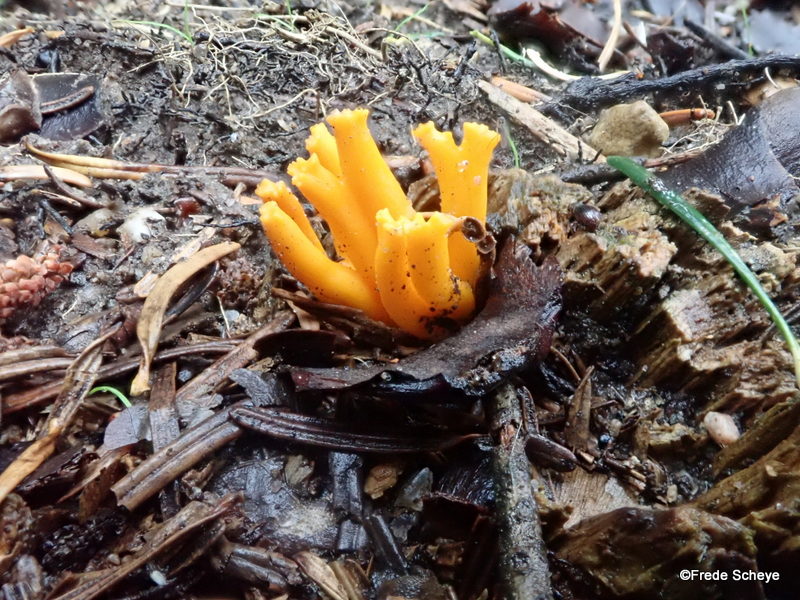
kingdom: Fungi
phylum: Basidiomycota
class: Dacrymycetes
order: Dacrymycetales
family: Dacrymycetaceae
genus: Calocera
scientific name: Calocera viscosa
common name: almindelig guldgaffel
